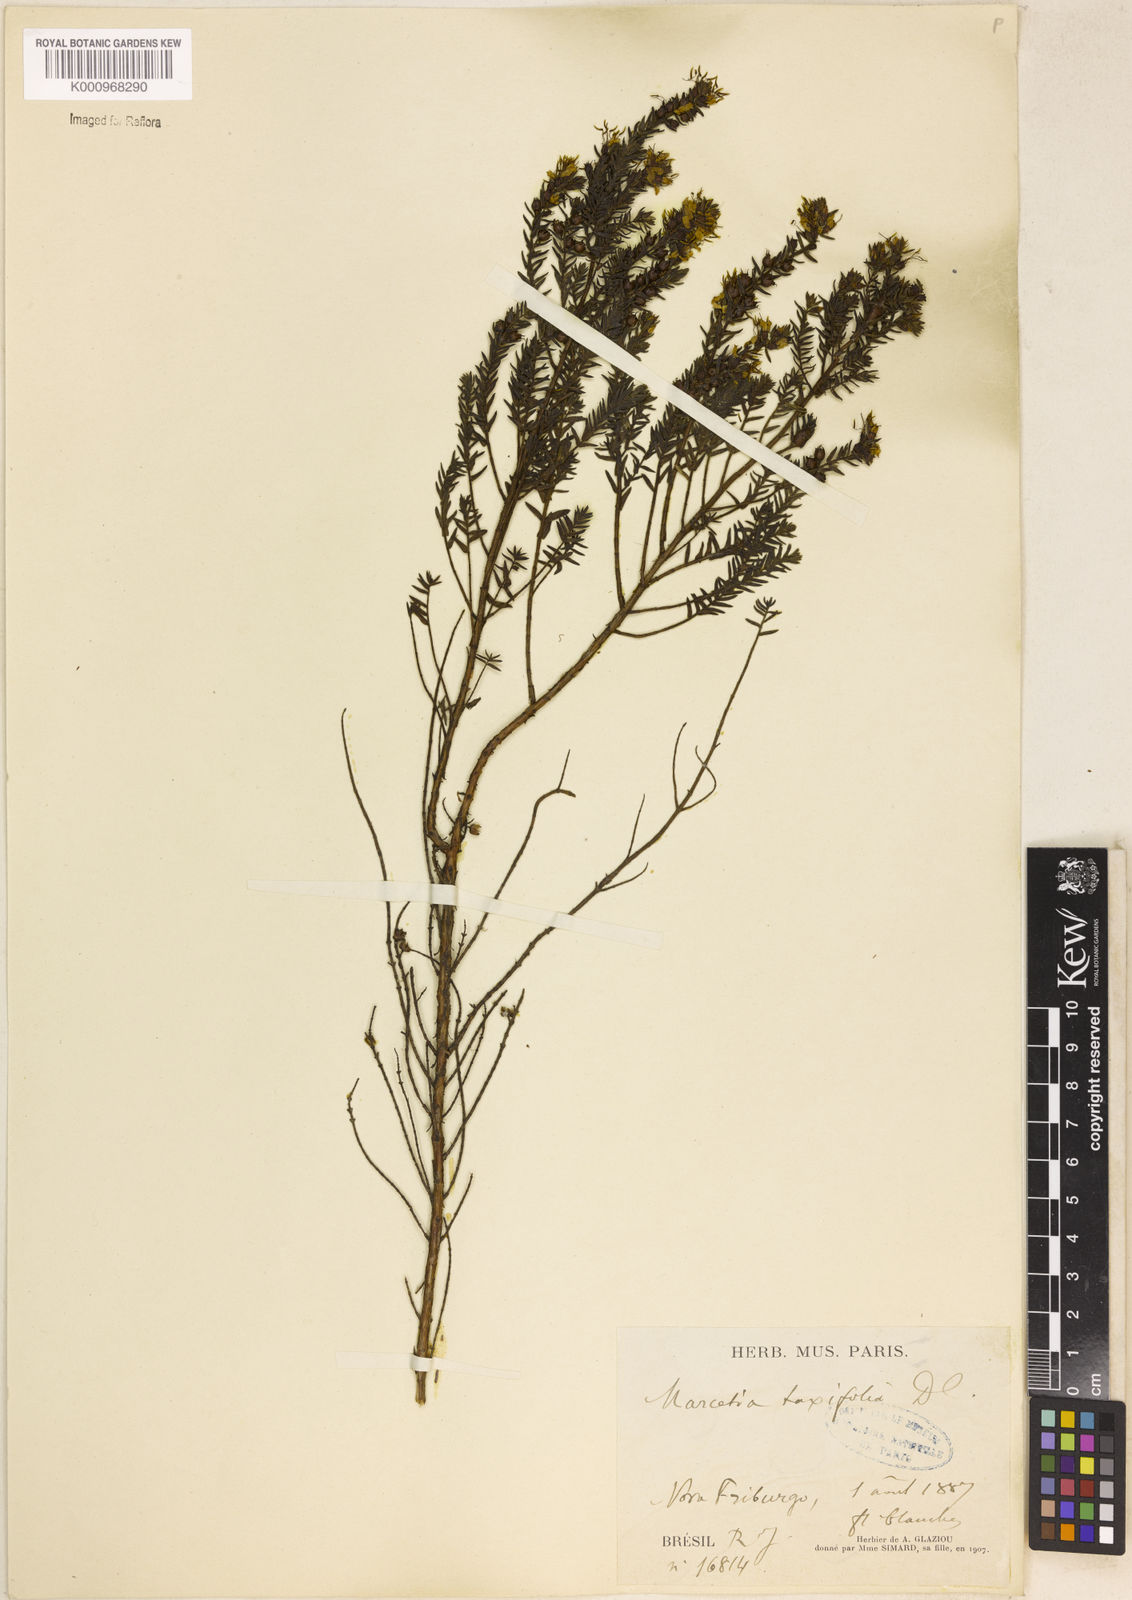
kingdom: Plantae
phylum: Tracheophyta
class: Magnoliopsida
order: Myrtales
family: Melastomataceae
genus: Marcetia
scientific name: Marcetia taxifolia
